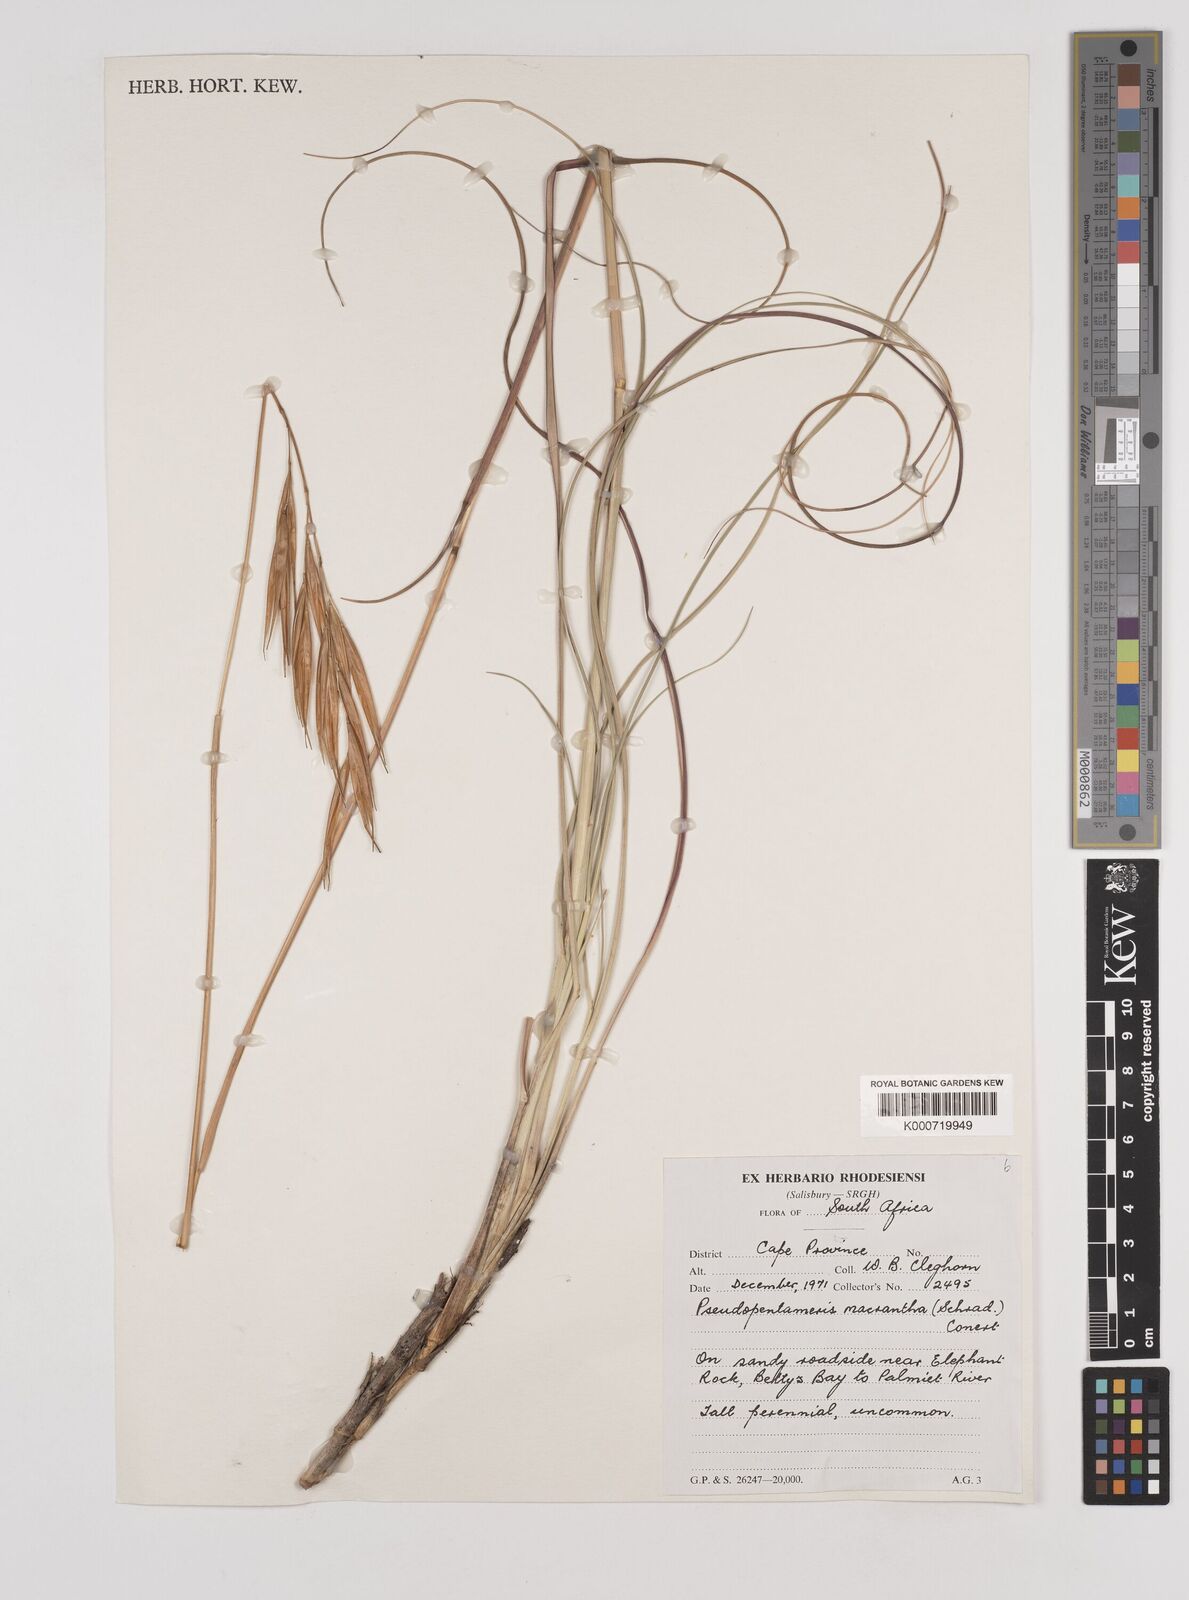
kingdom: Plantae
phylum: Tracheophyta
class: Liliopsida
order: Poales
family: Poaceae
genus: Pseudopentameris
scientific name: Pseudopentameris macrantha
